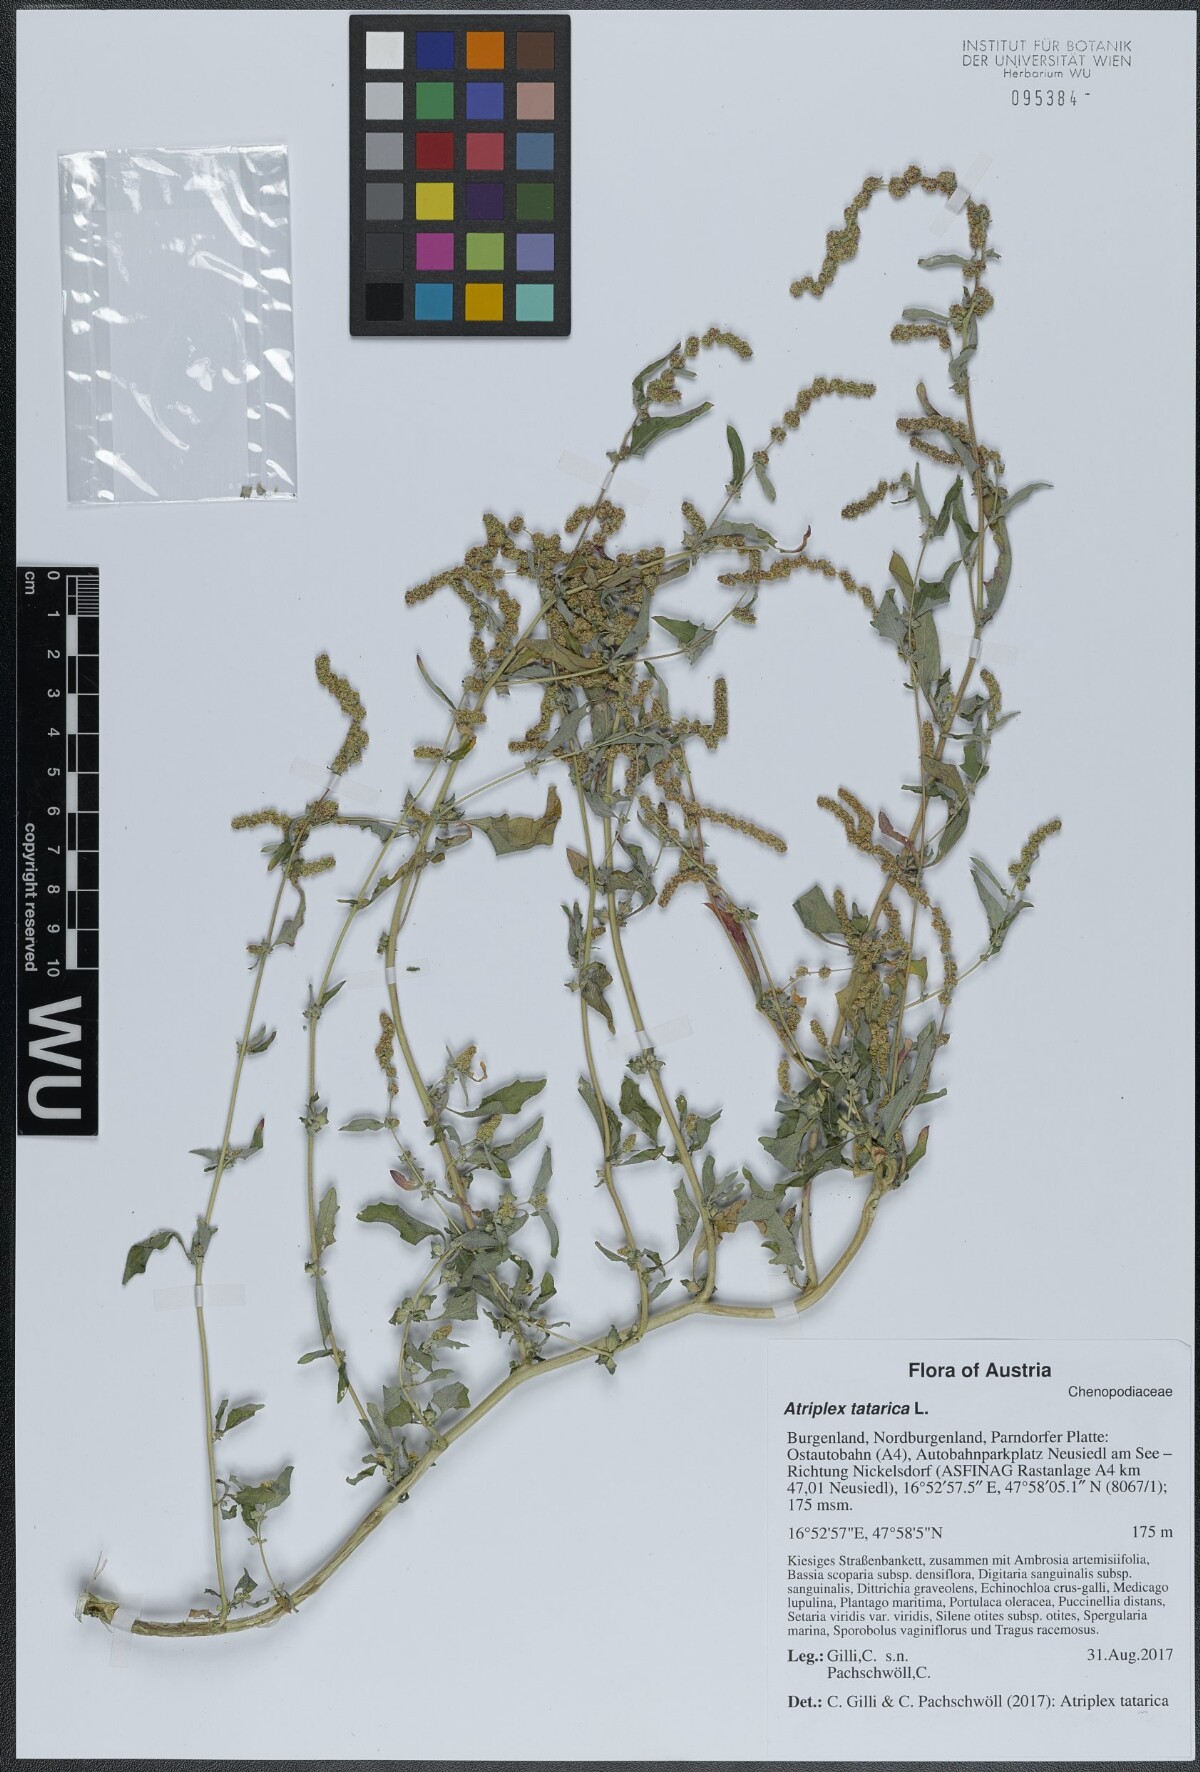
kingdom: Plantae
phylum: Tracheophyta
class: Magnoliopsida
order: Caryophyllales
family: Amaranthaceae
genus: Atriplex
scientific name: Atriplex tatarica
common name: Tatarian orache
